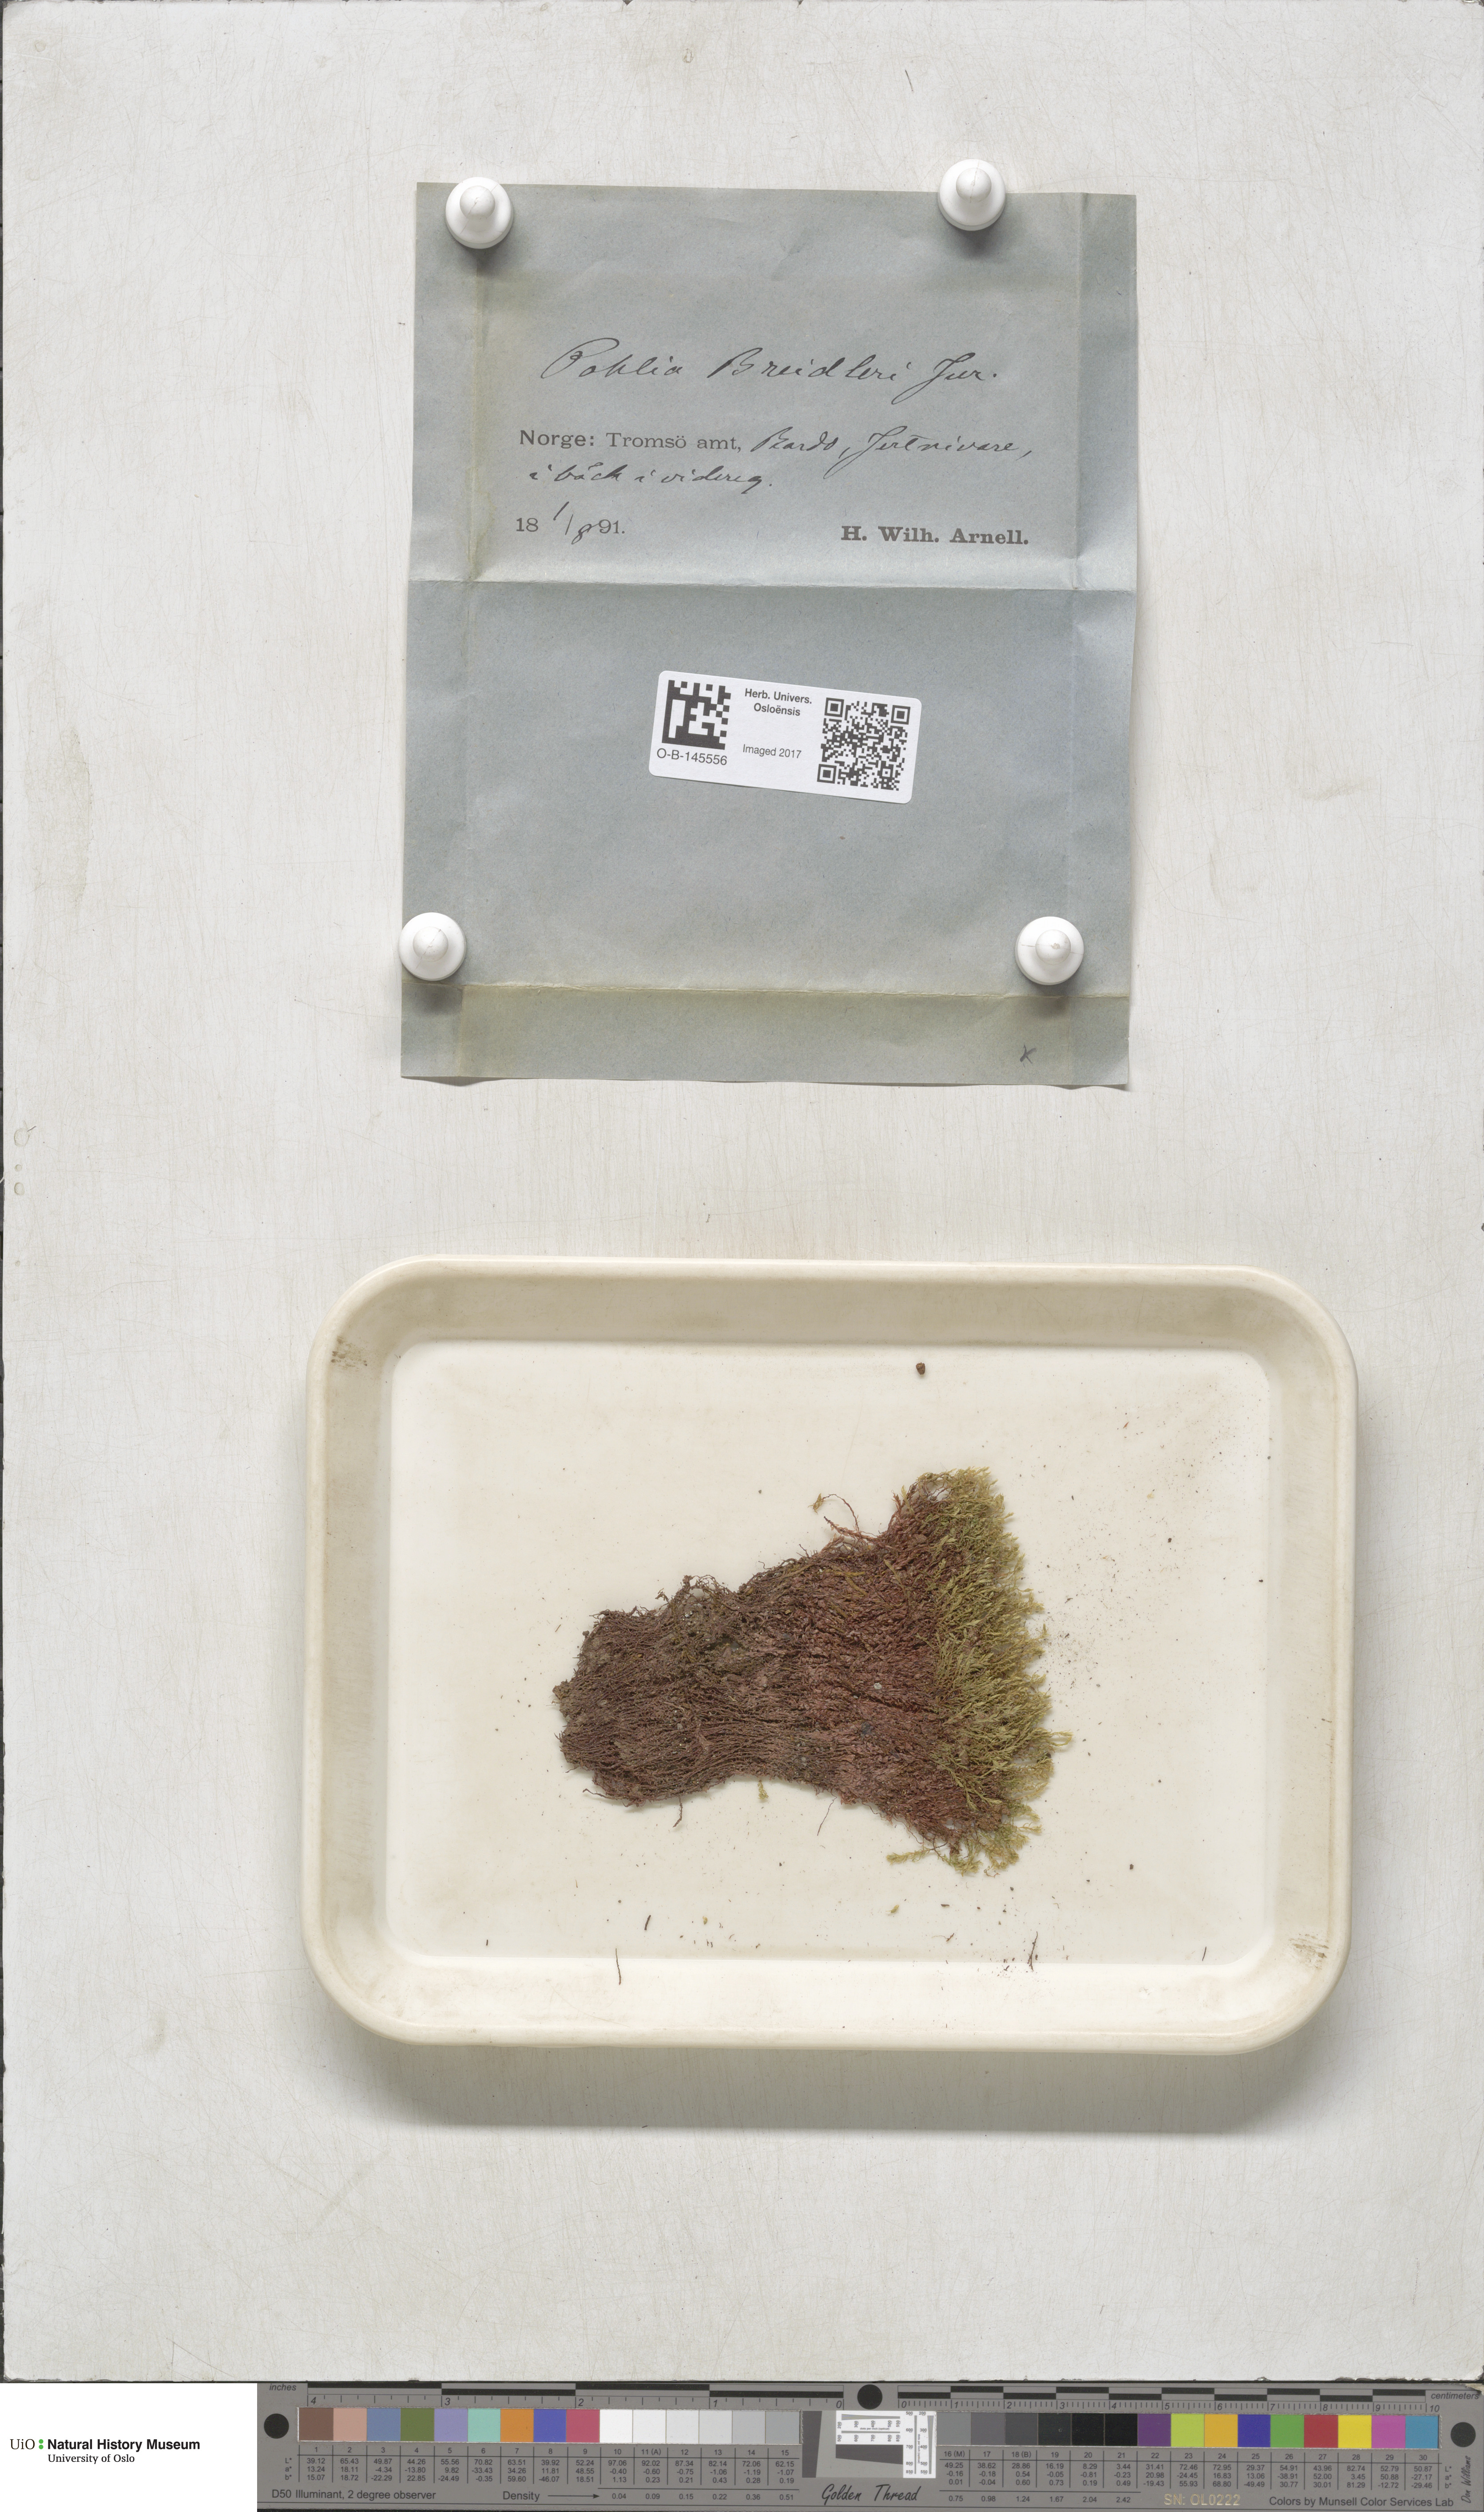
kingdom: Plantae
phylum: Bryophyta
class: Bryopsida
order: Bryales
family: Mniaceae
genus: Pohlia
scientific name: Pohlia ludwigii
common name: Ludwig's thread-moss
